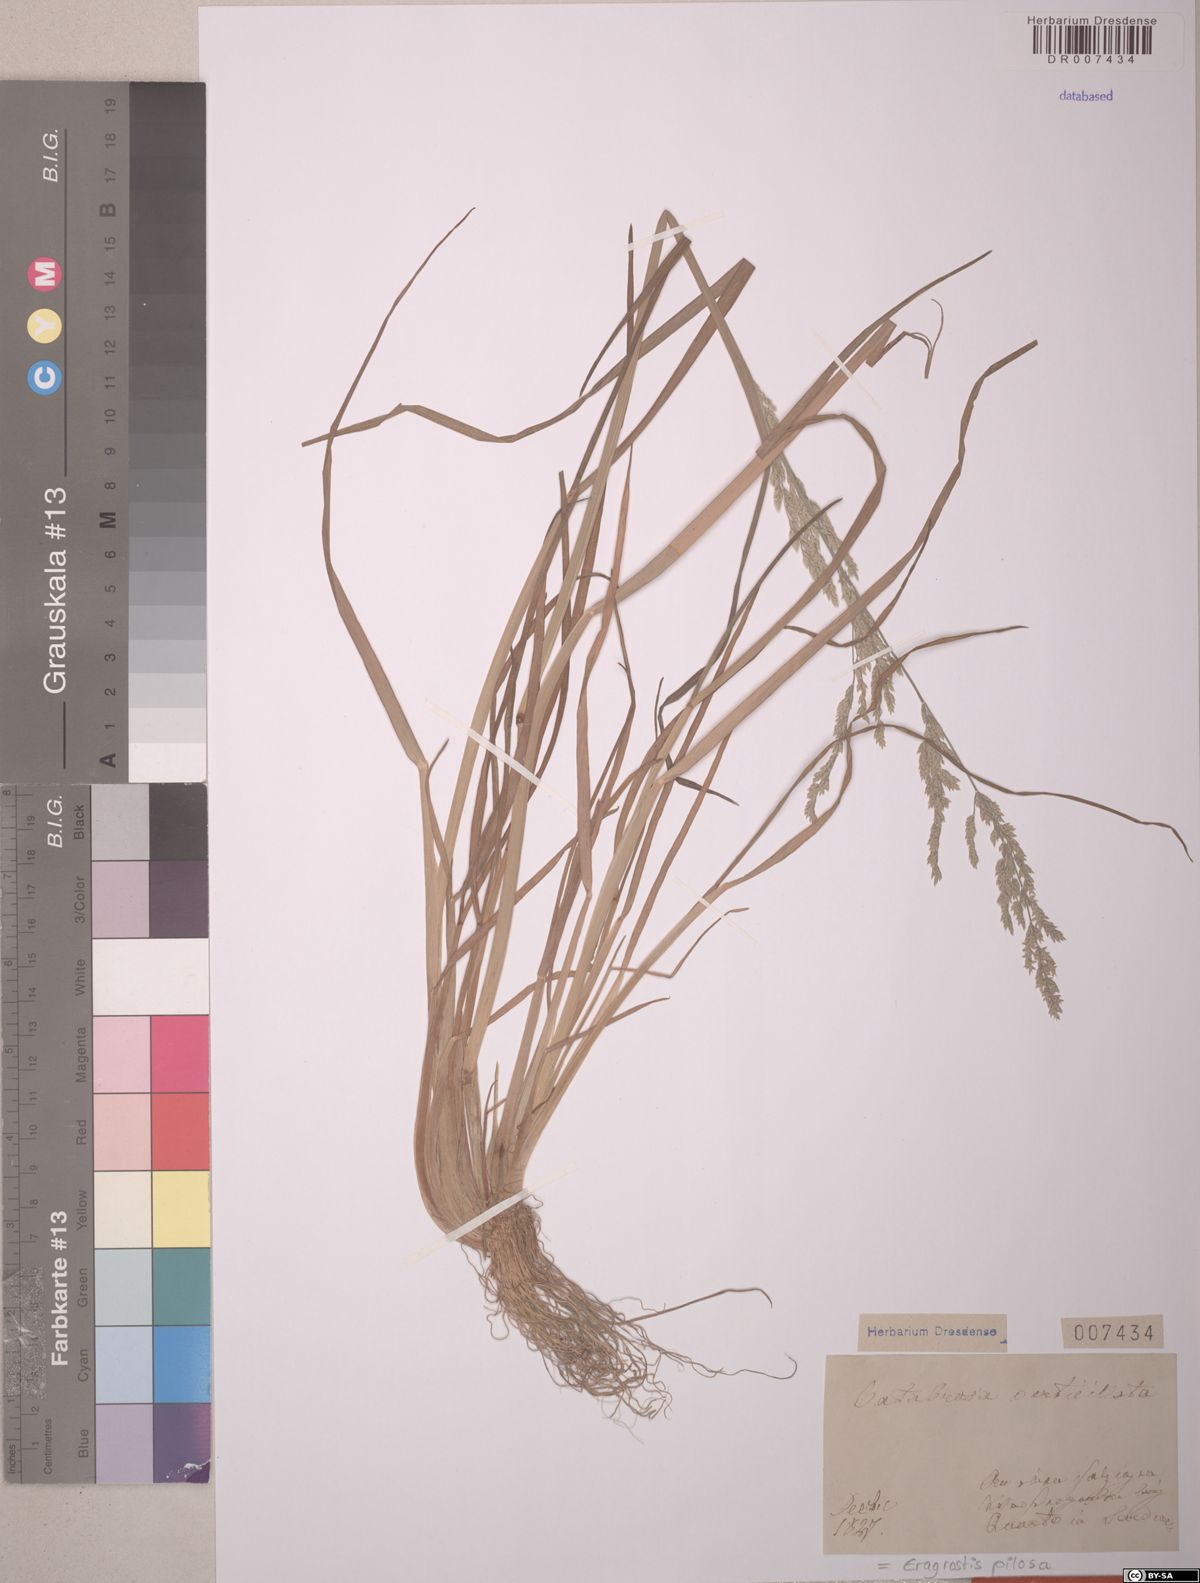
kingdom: Plantae
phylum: Tracheophyta
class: Liliopsida
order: Poales
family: Poaceae
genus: Eragrostis
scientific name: Eragrostis pilosa
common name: Indian lovegrass
